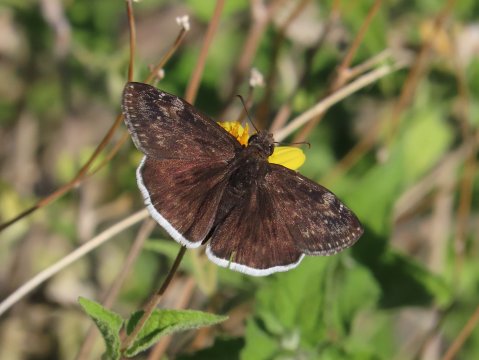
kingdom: Animalia
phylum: Arthropoda
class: Insecta
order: Lepidoptera
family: Hesperiidae
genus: Erynnis
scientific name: Erynnis funeralis
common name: Funereal Duskywing
